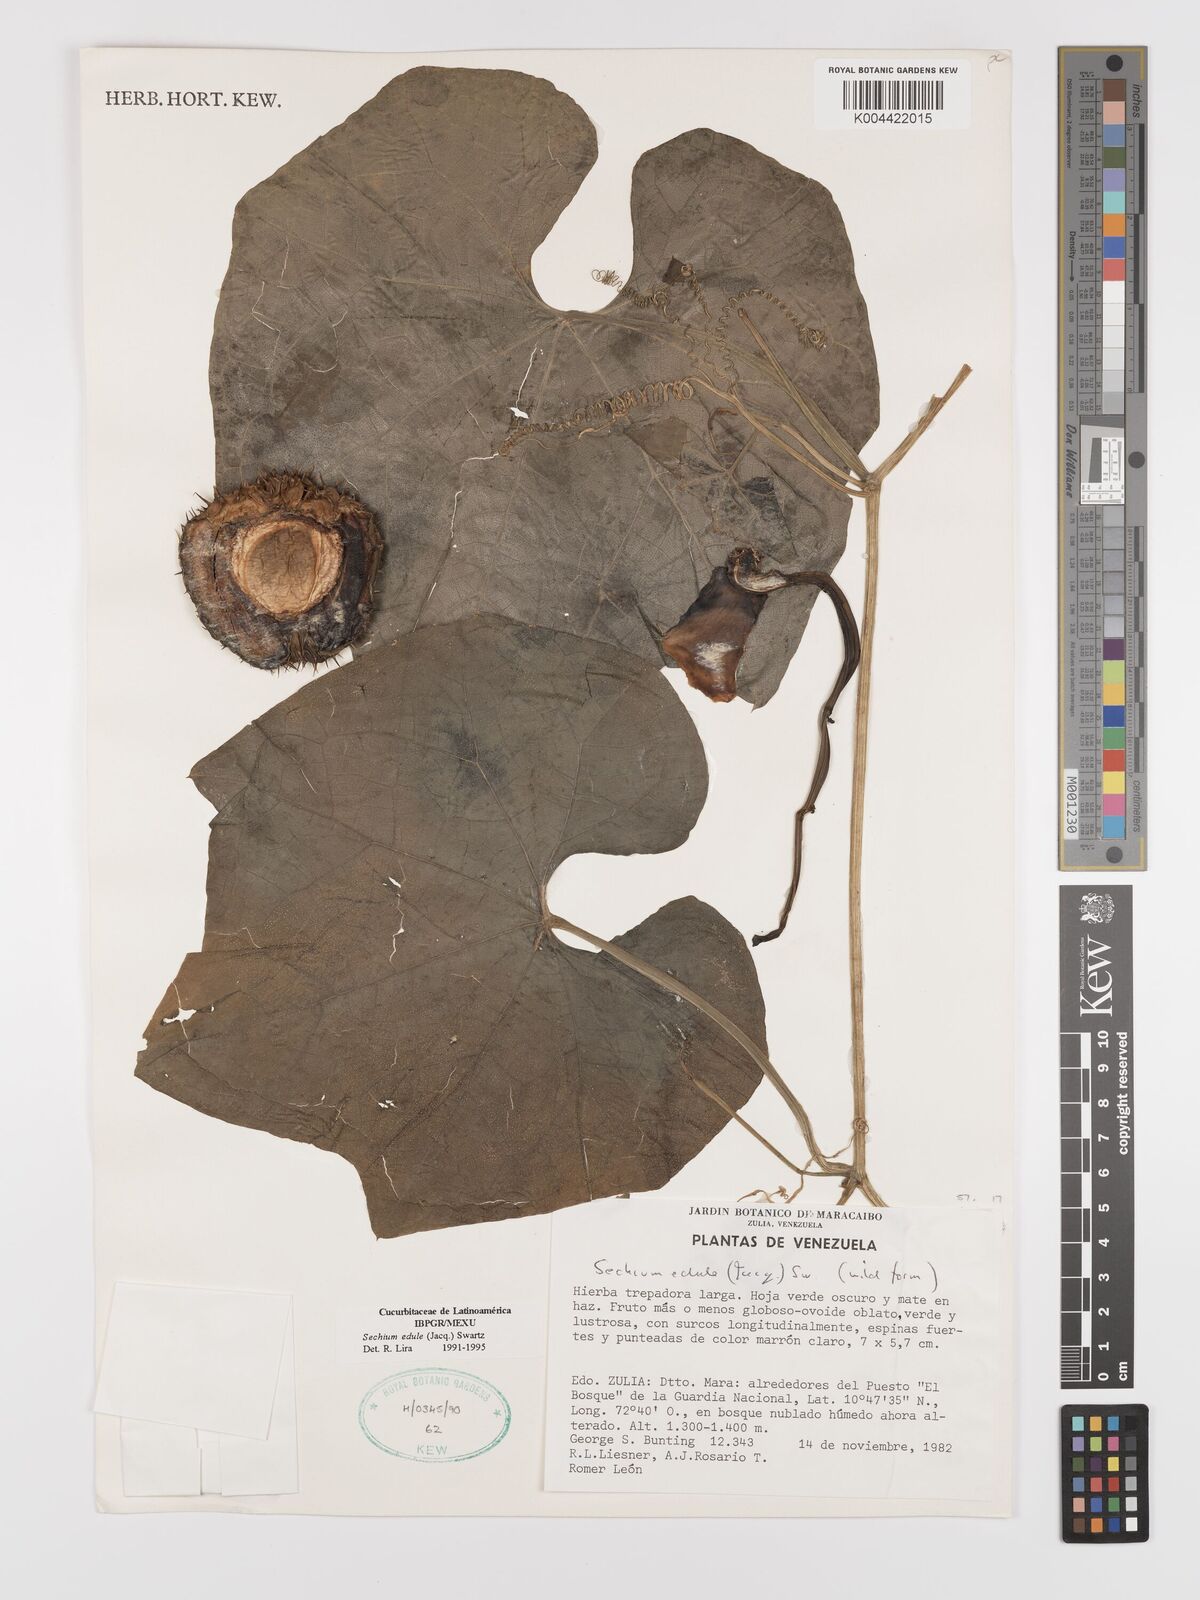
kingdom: Plantae
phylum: Tracheophyta
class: Magnoliopsida
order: Cucurbitales
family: Cucurbitaceae
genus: Sechium
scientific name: Sechium edule
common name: Chayote
